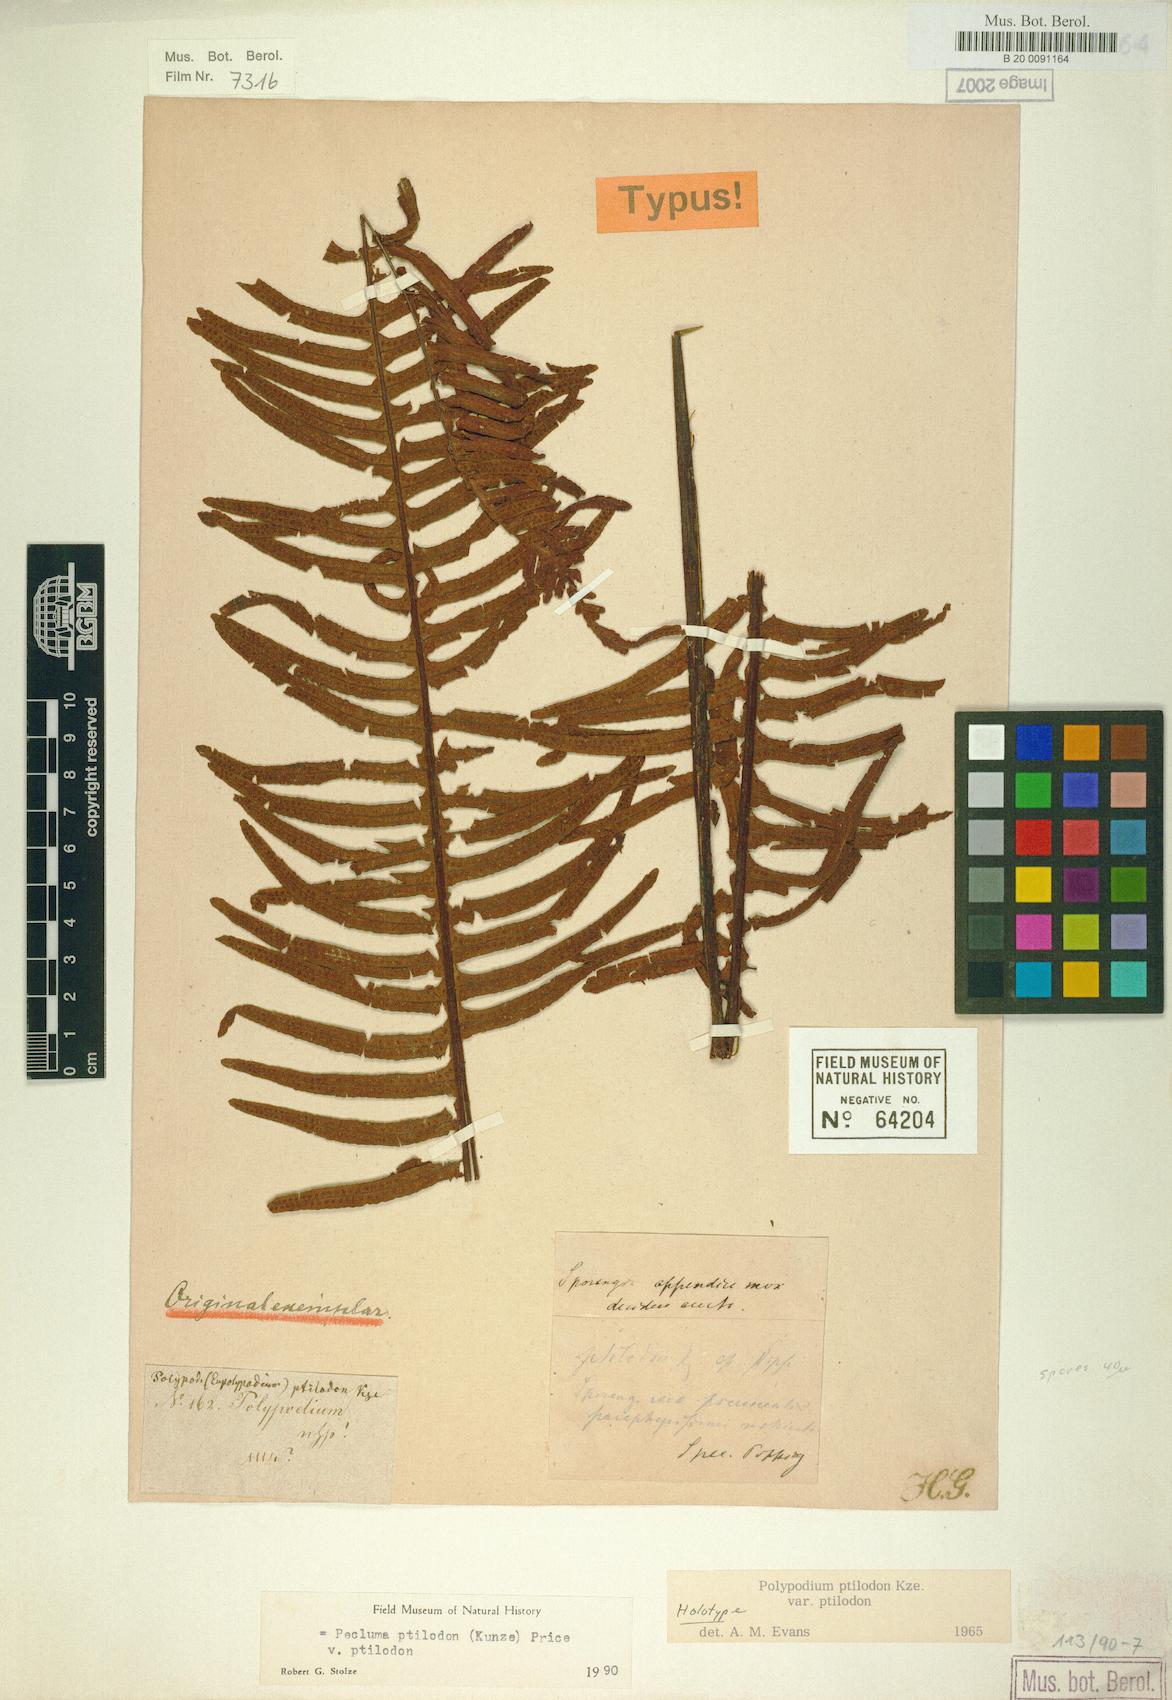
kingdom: Plantae
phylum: Tracheophyta
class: Polypodiopsida
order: Polypodiales
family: Polypodiaceae
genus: Pecluma
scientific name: Pecluma ptilotos
